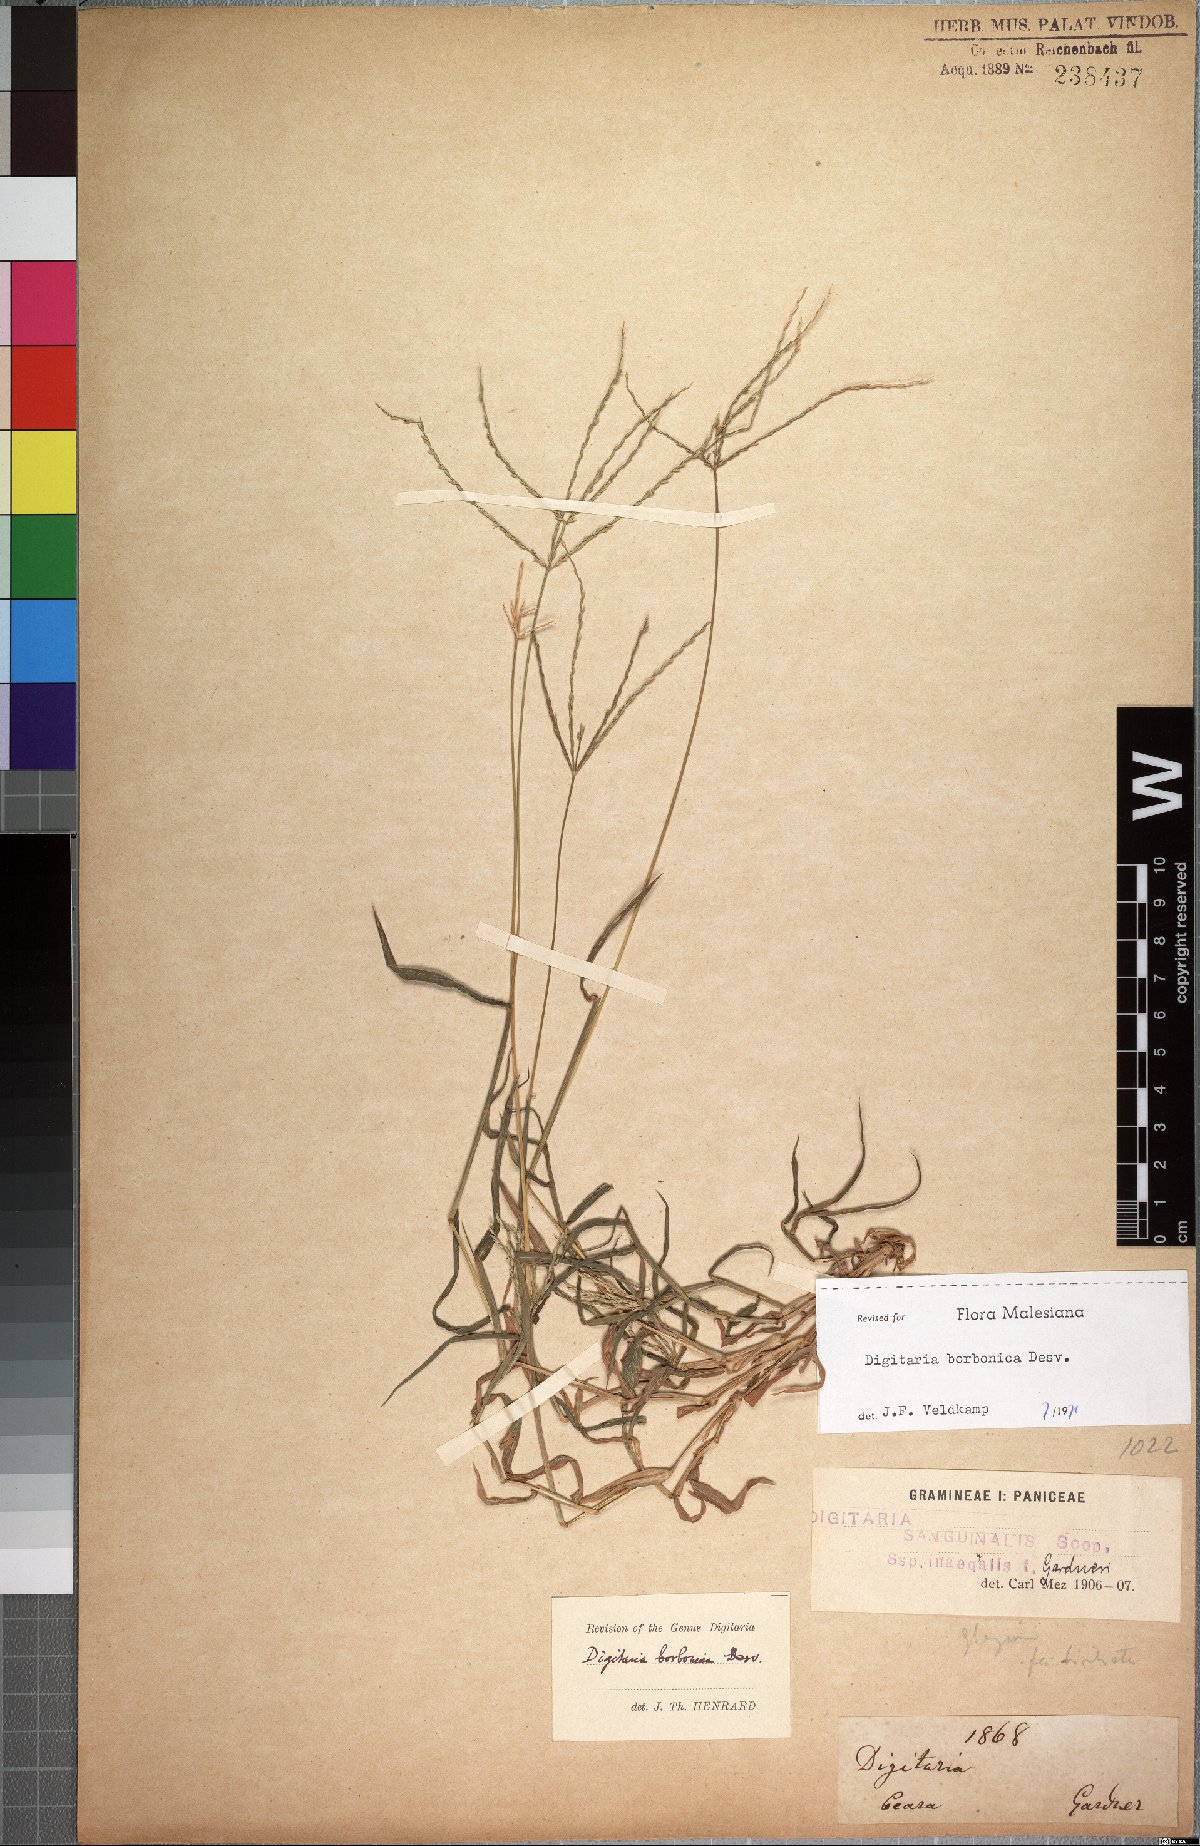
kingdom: Plantae
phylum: Tracheophyta
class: Liliopsida
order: Poales
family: Poaceae
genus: Digitaria
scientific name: Digitaria nuda
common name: Naked crabgrass
